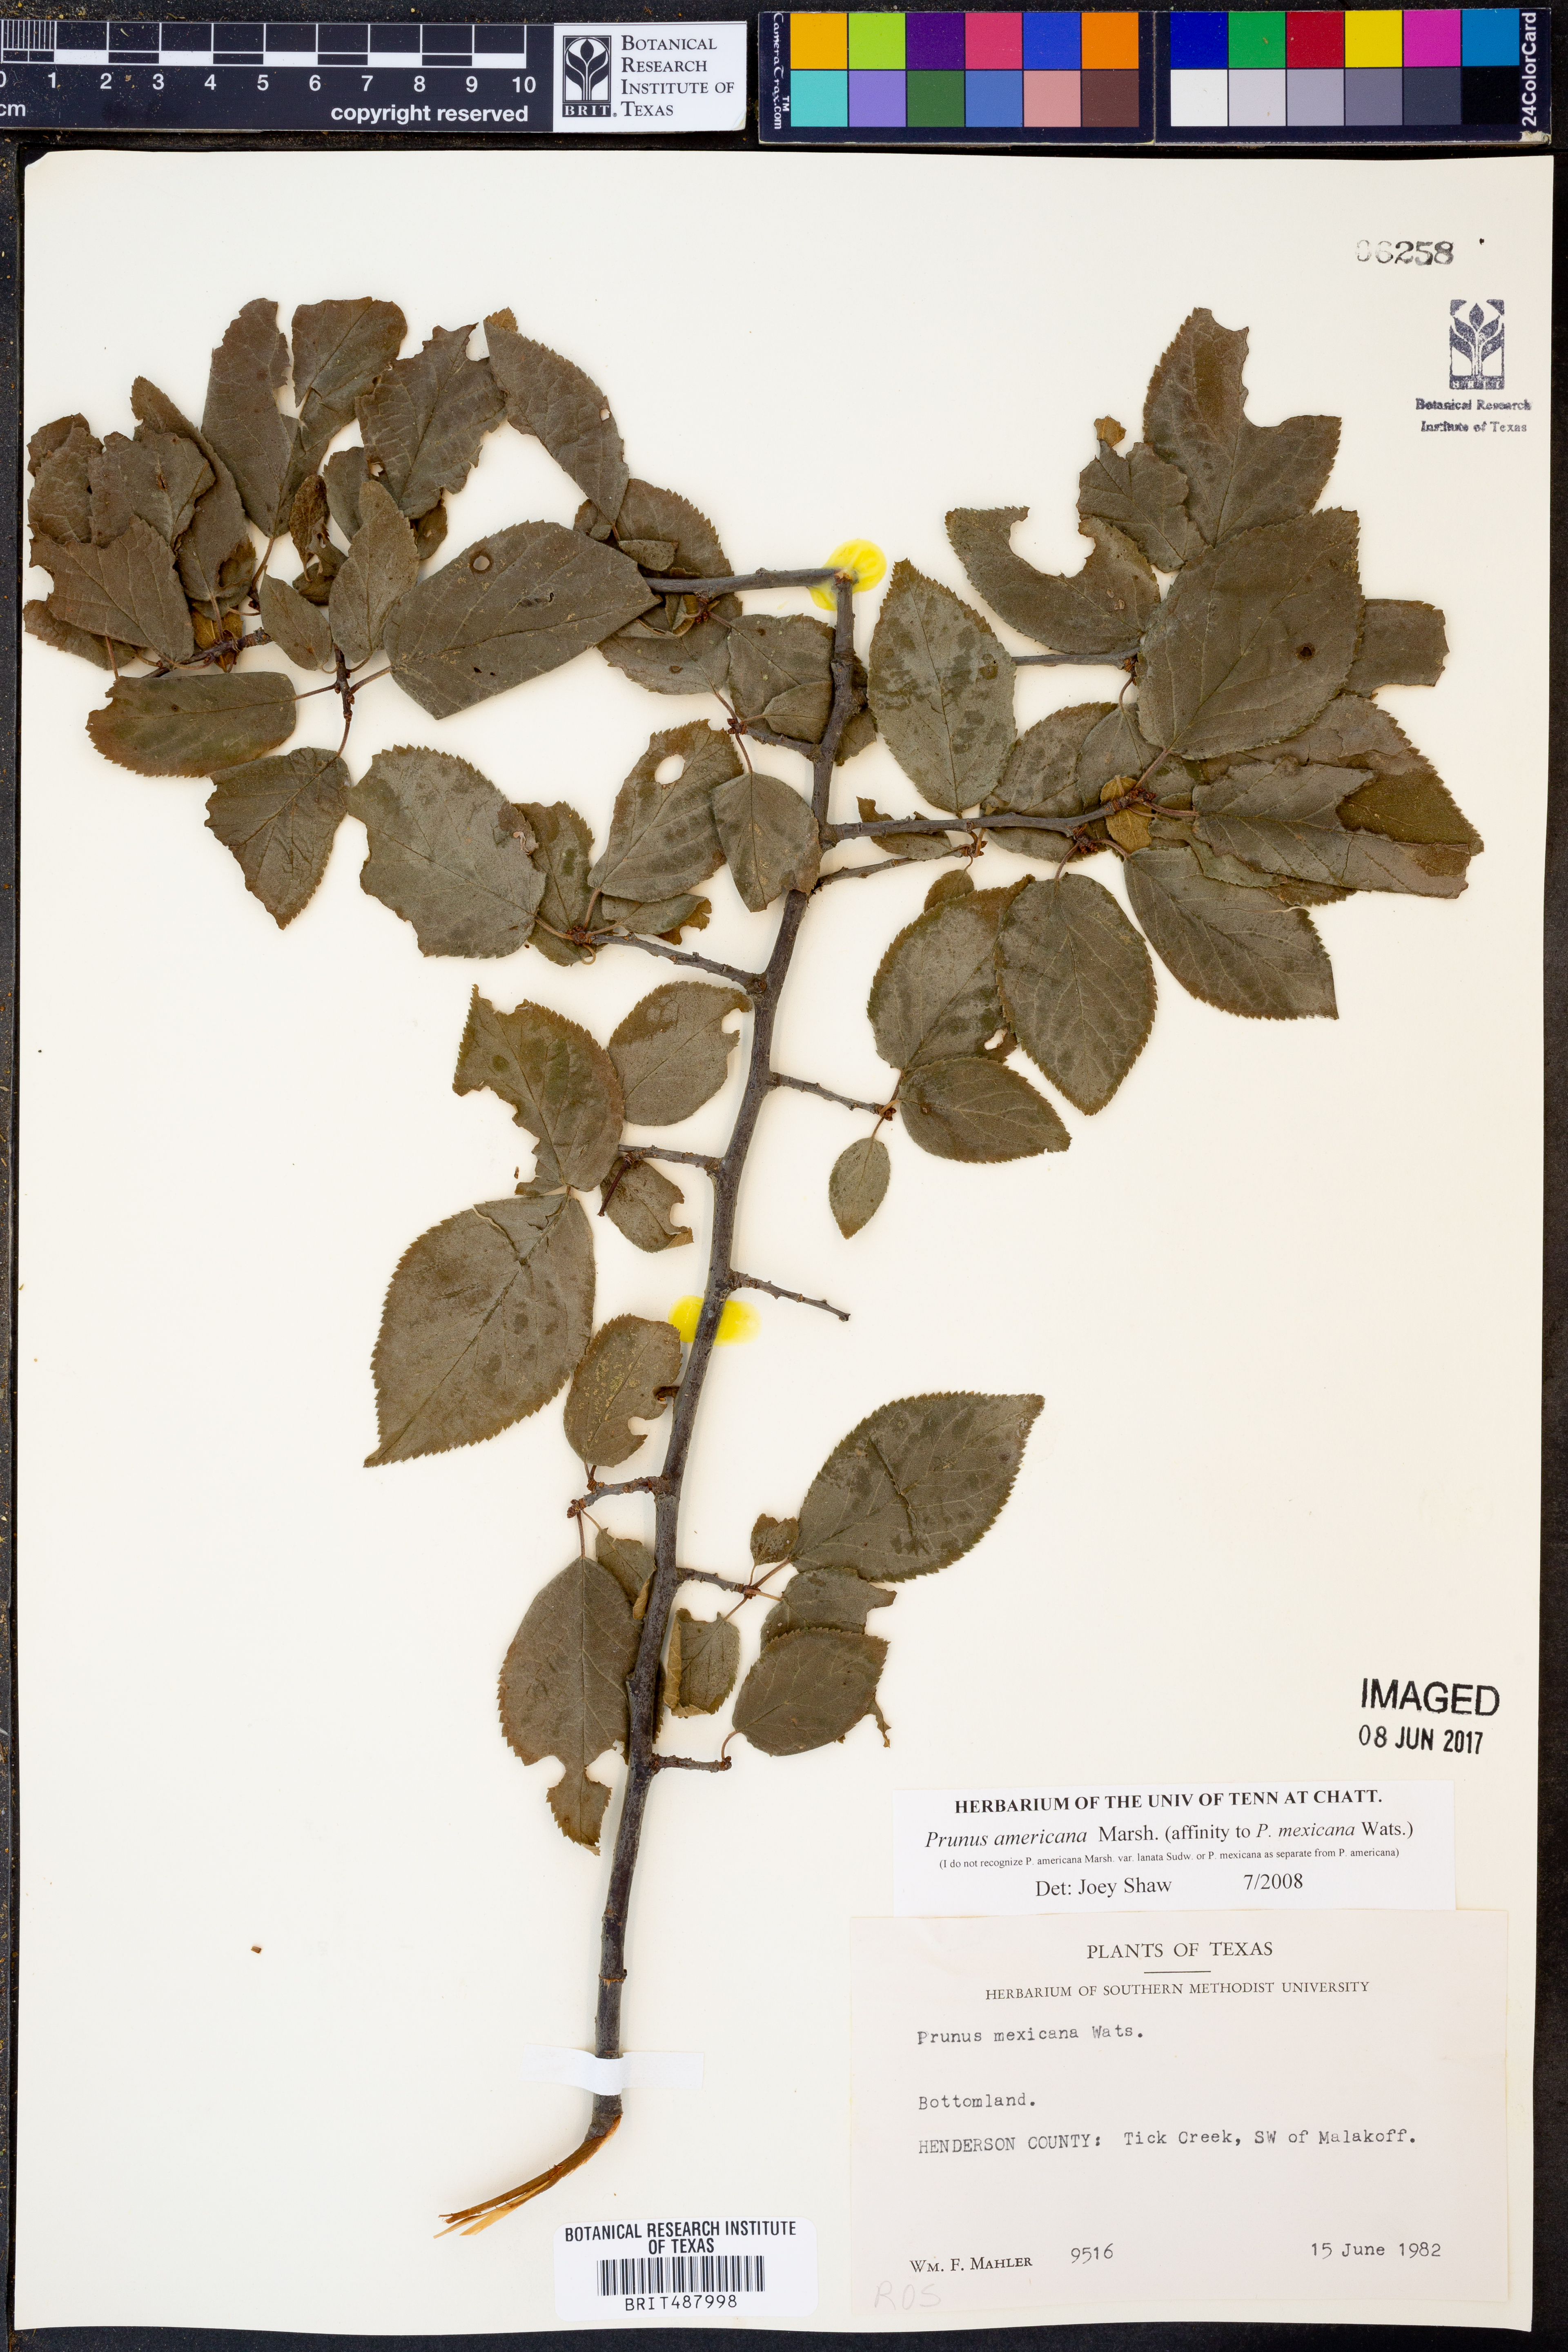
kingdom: Plantae
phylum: Tracheophyta
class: Magnoliopsida
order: Rosales
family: Rosaceae
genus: Prunus
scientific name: Prunus americana
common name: American plum
